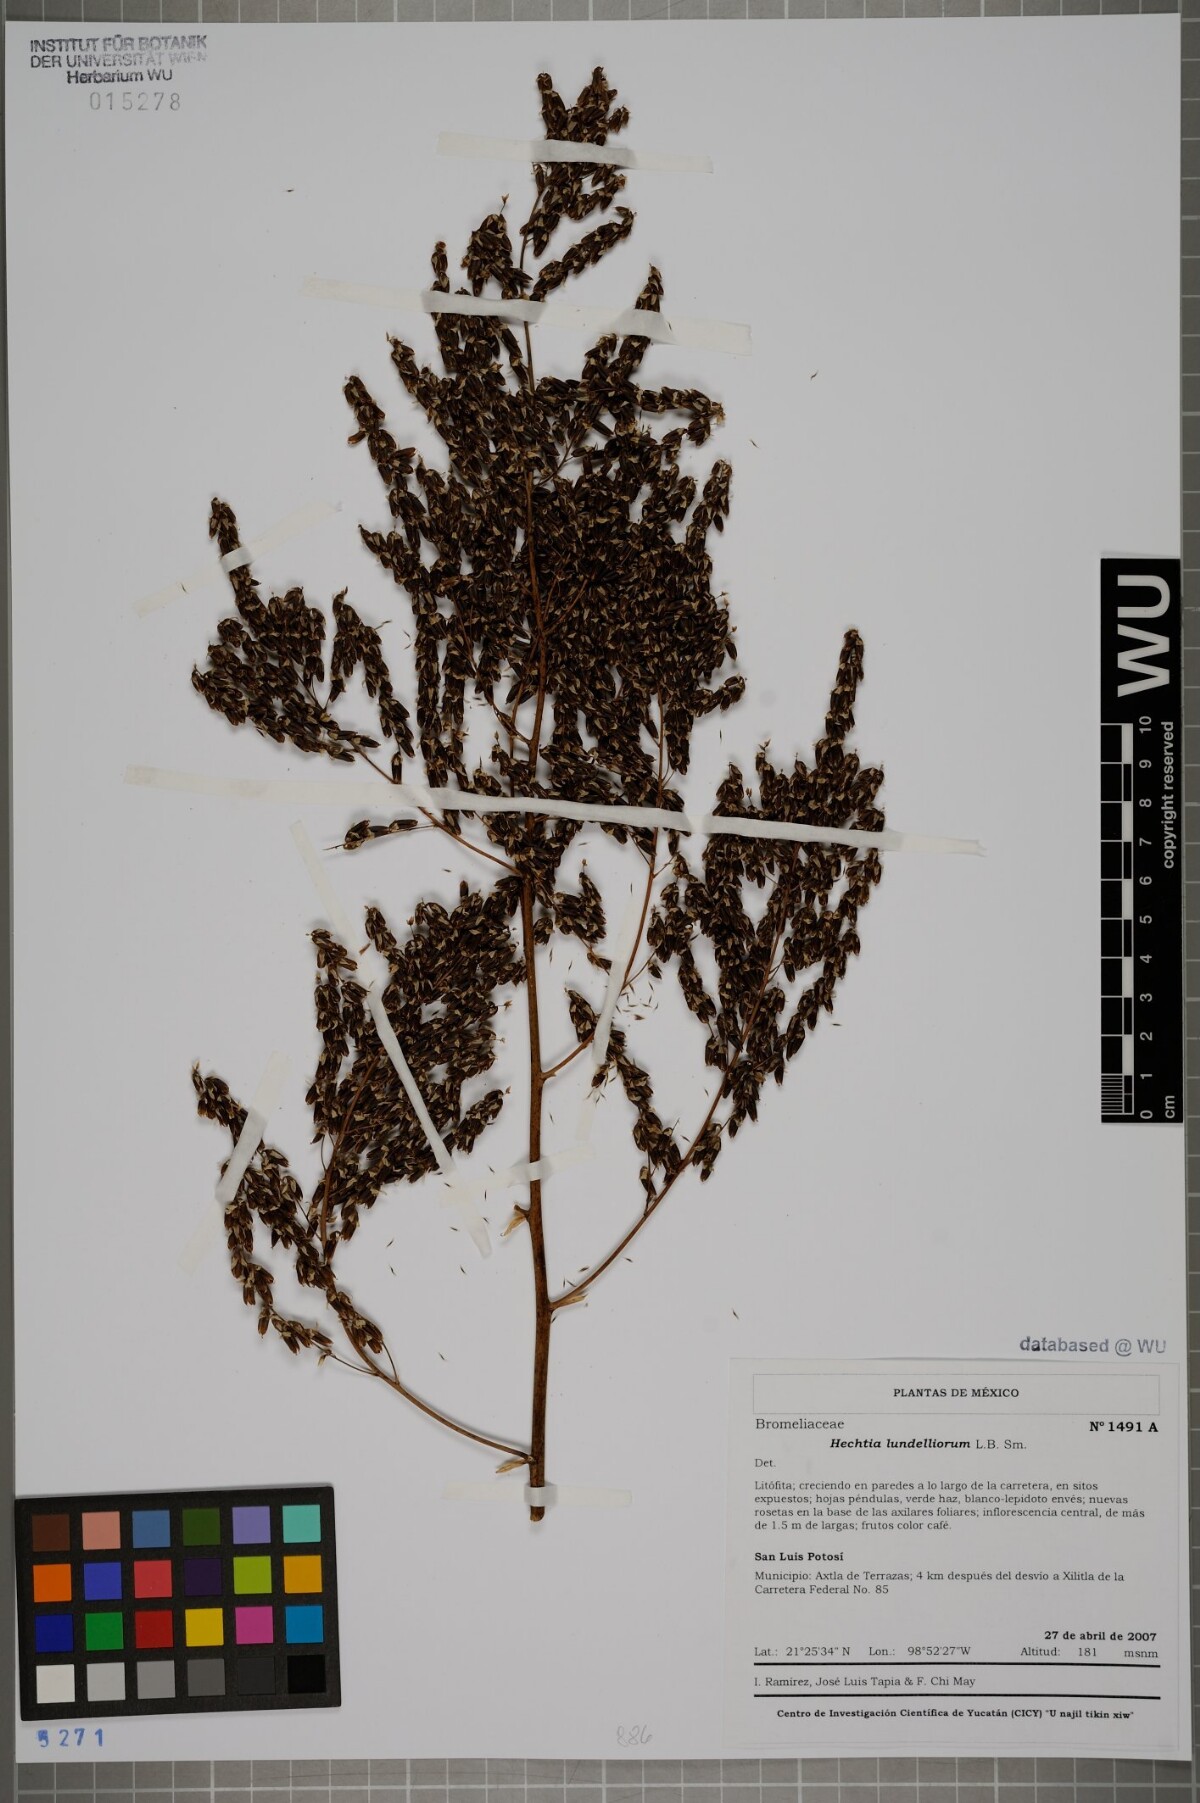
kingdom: Plantae
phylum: Tracheophyta
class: Liliopsida
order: Poales
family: Bromeliaceae
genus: Hechtia
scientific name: Hechtia lundelliorum
